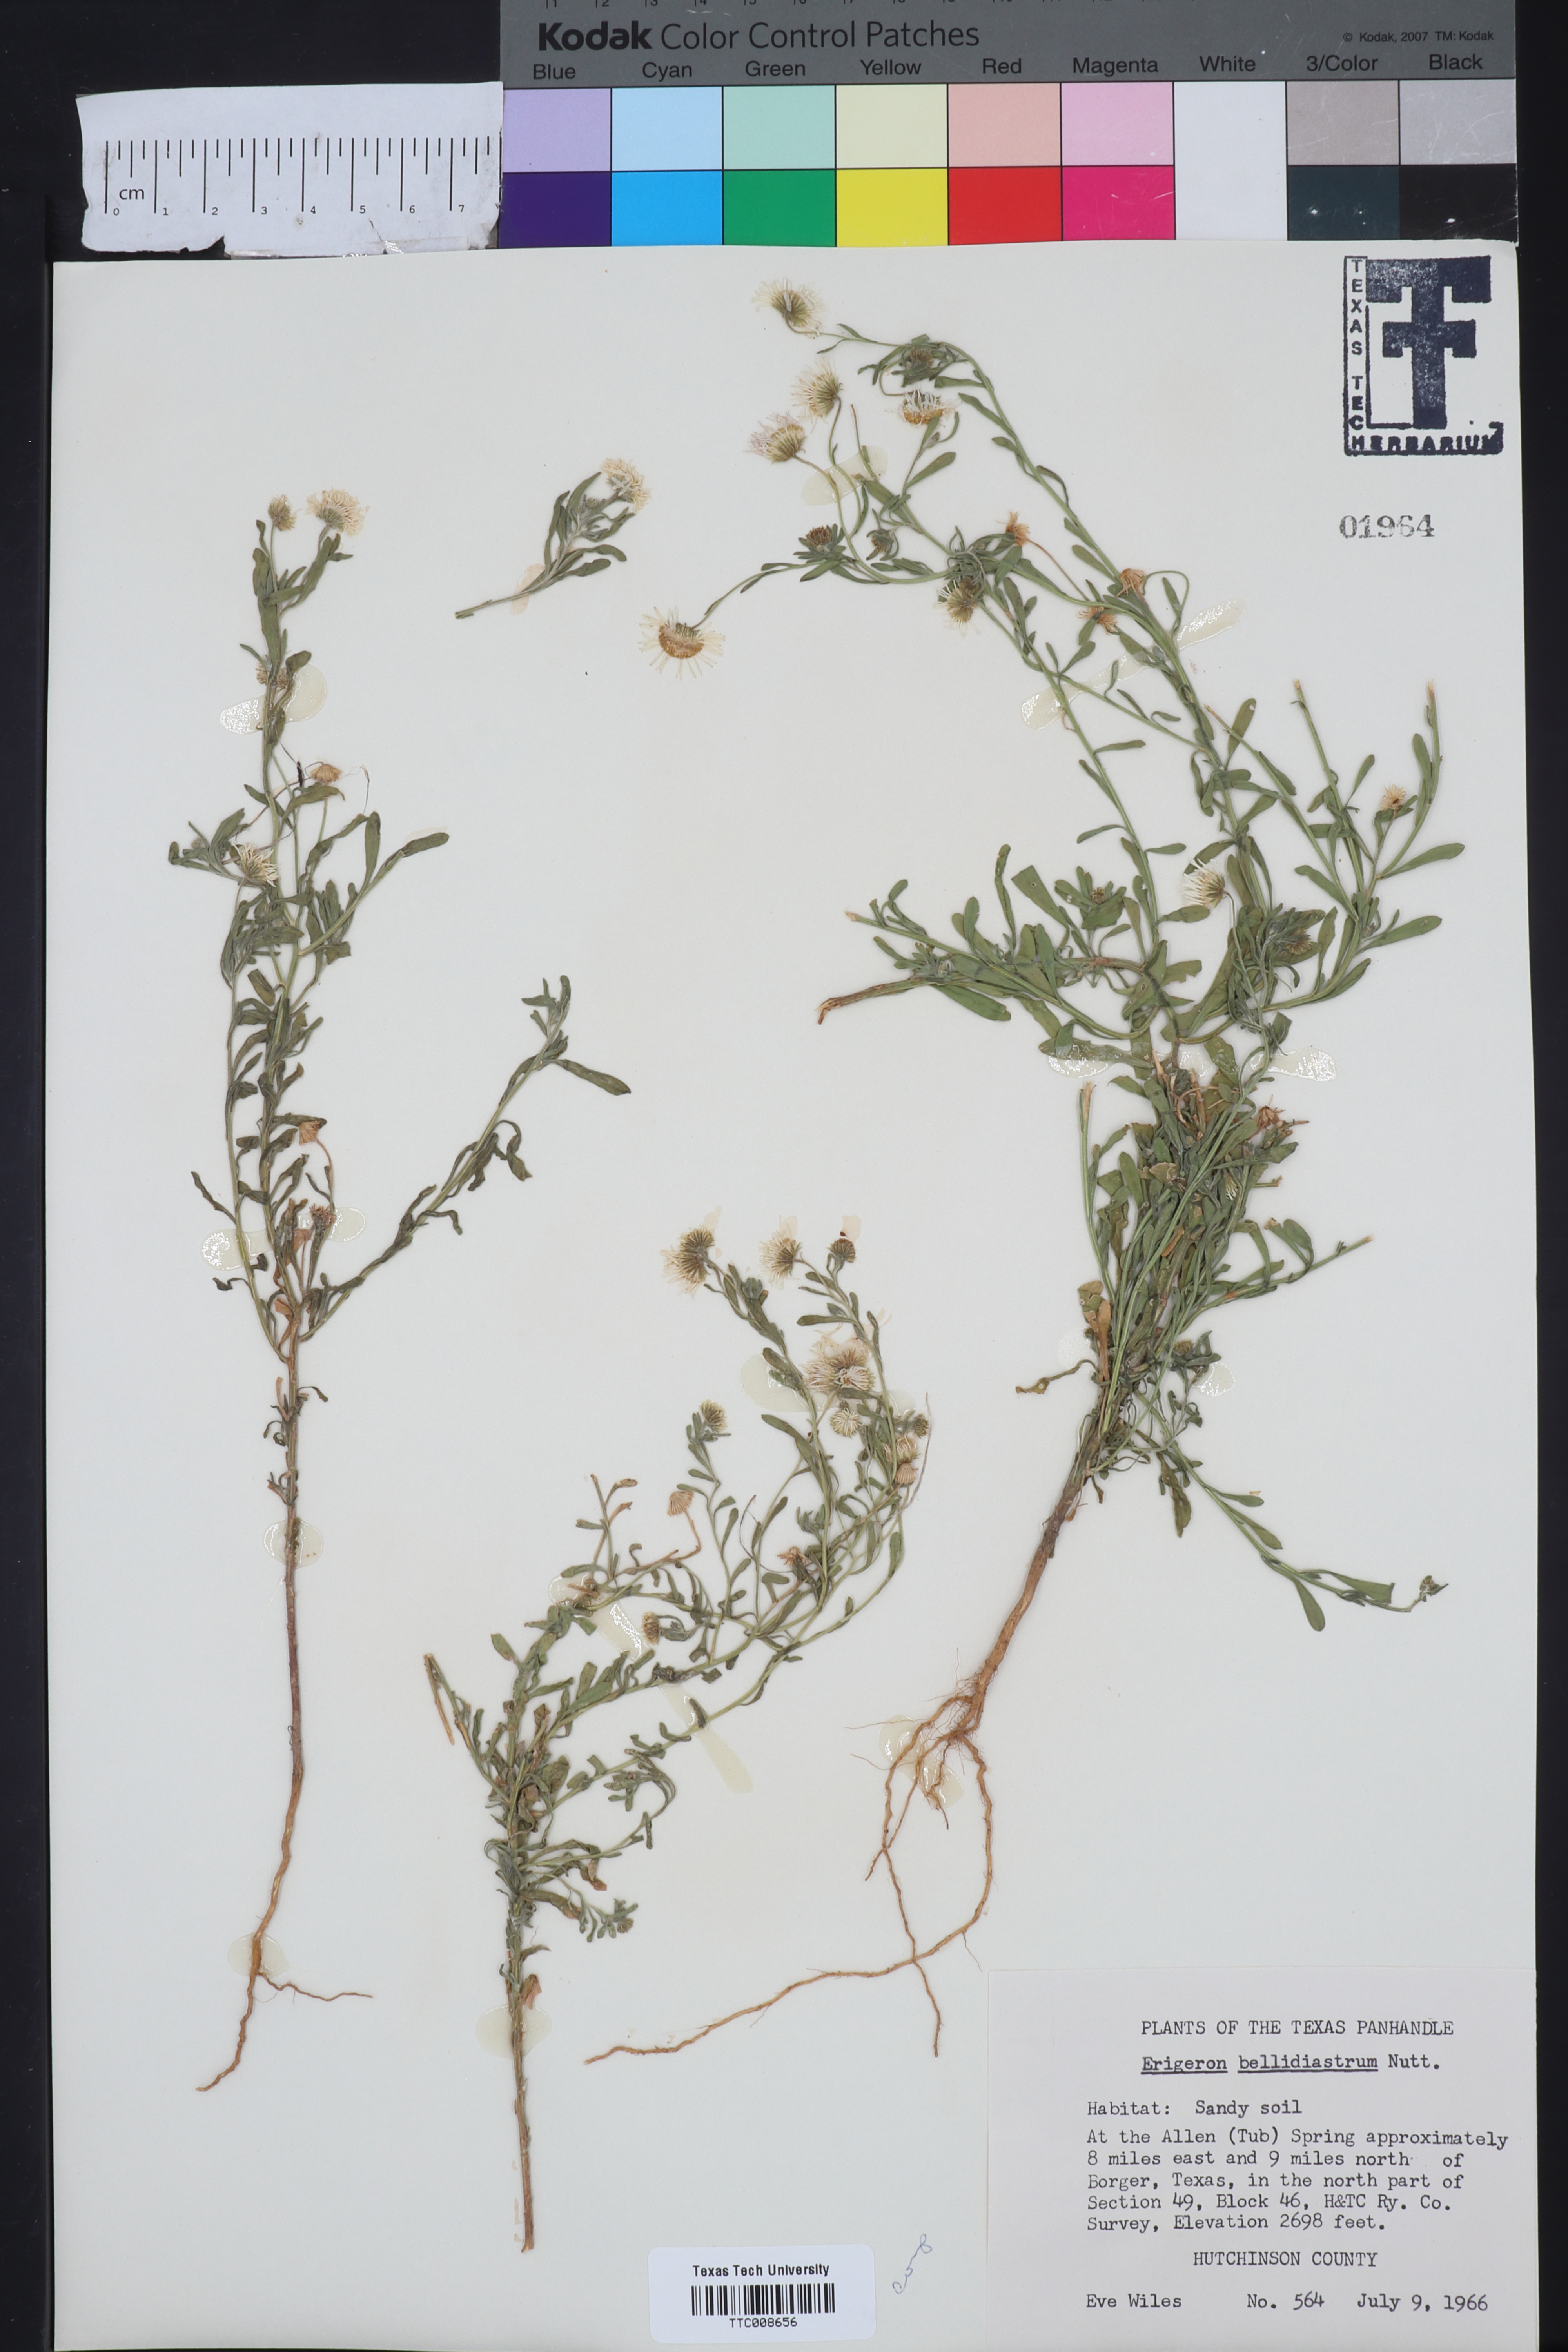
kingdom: Plantae
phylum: Tracheophyta
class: Magnoliopsida
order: Asterales
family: Asteraceae
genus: Erigeron
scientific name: Erigeron bellidiastrum
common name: Sand fleabane
